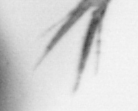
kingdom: Animalia
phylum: Arthropoda
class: Copepoda
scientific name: Copepoda
